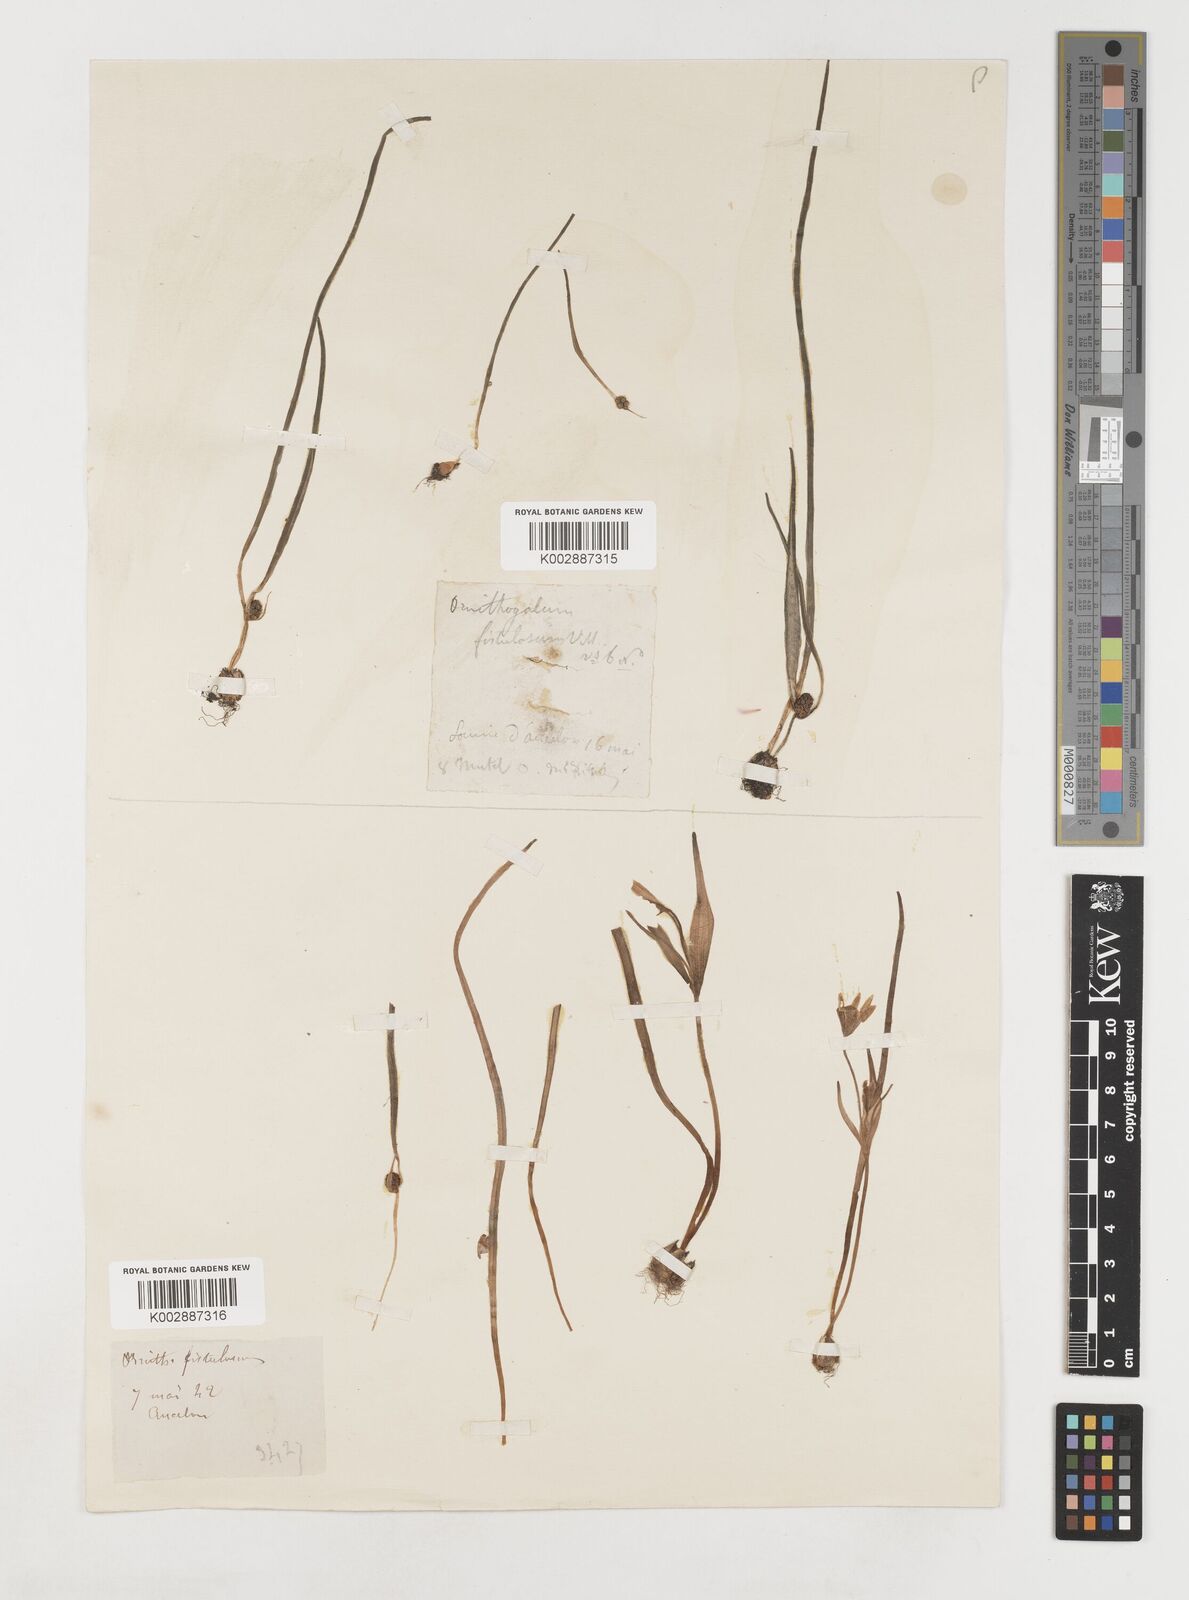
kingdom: Plantae
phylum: Tracheophyta
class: Liliopsida
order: Liliales
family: Liliaceae
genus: Gagea
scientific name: Gagea bohemica
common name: Early star-of-bethlehem
